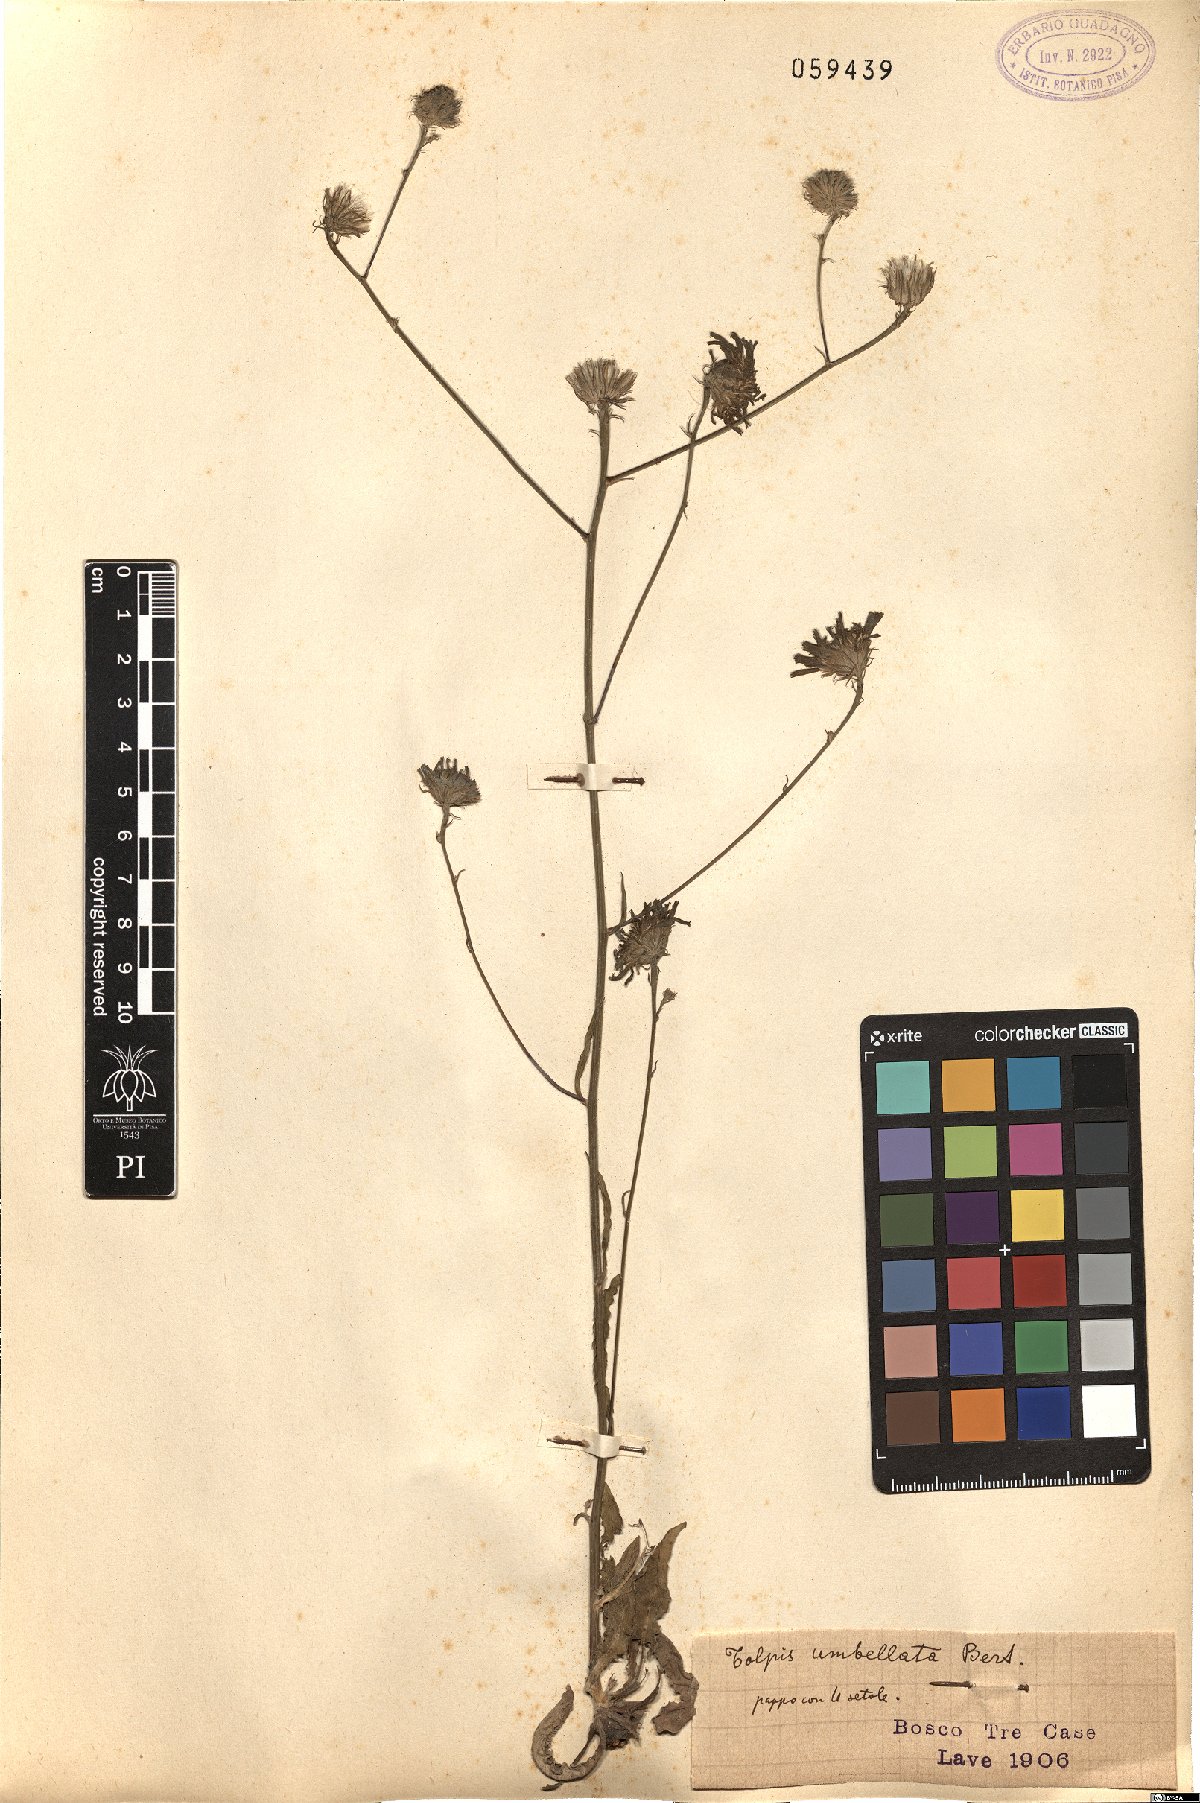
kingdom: Plantae
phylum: Tracheophyta
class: Magnoliopsida
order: Asterales
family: Asteraceae
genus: Tolpis
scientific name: Tolpis umbellata
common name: Yellow hawkweed
